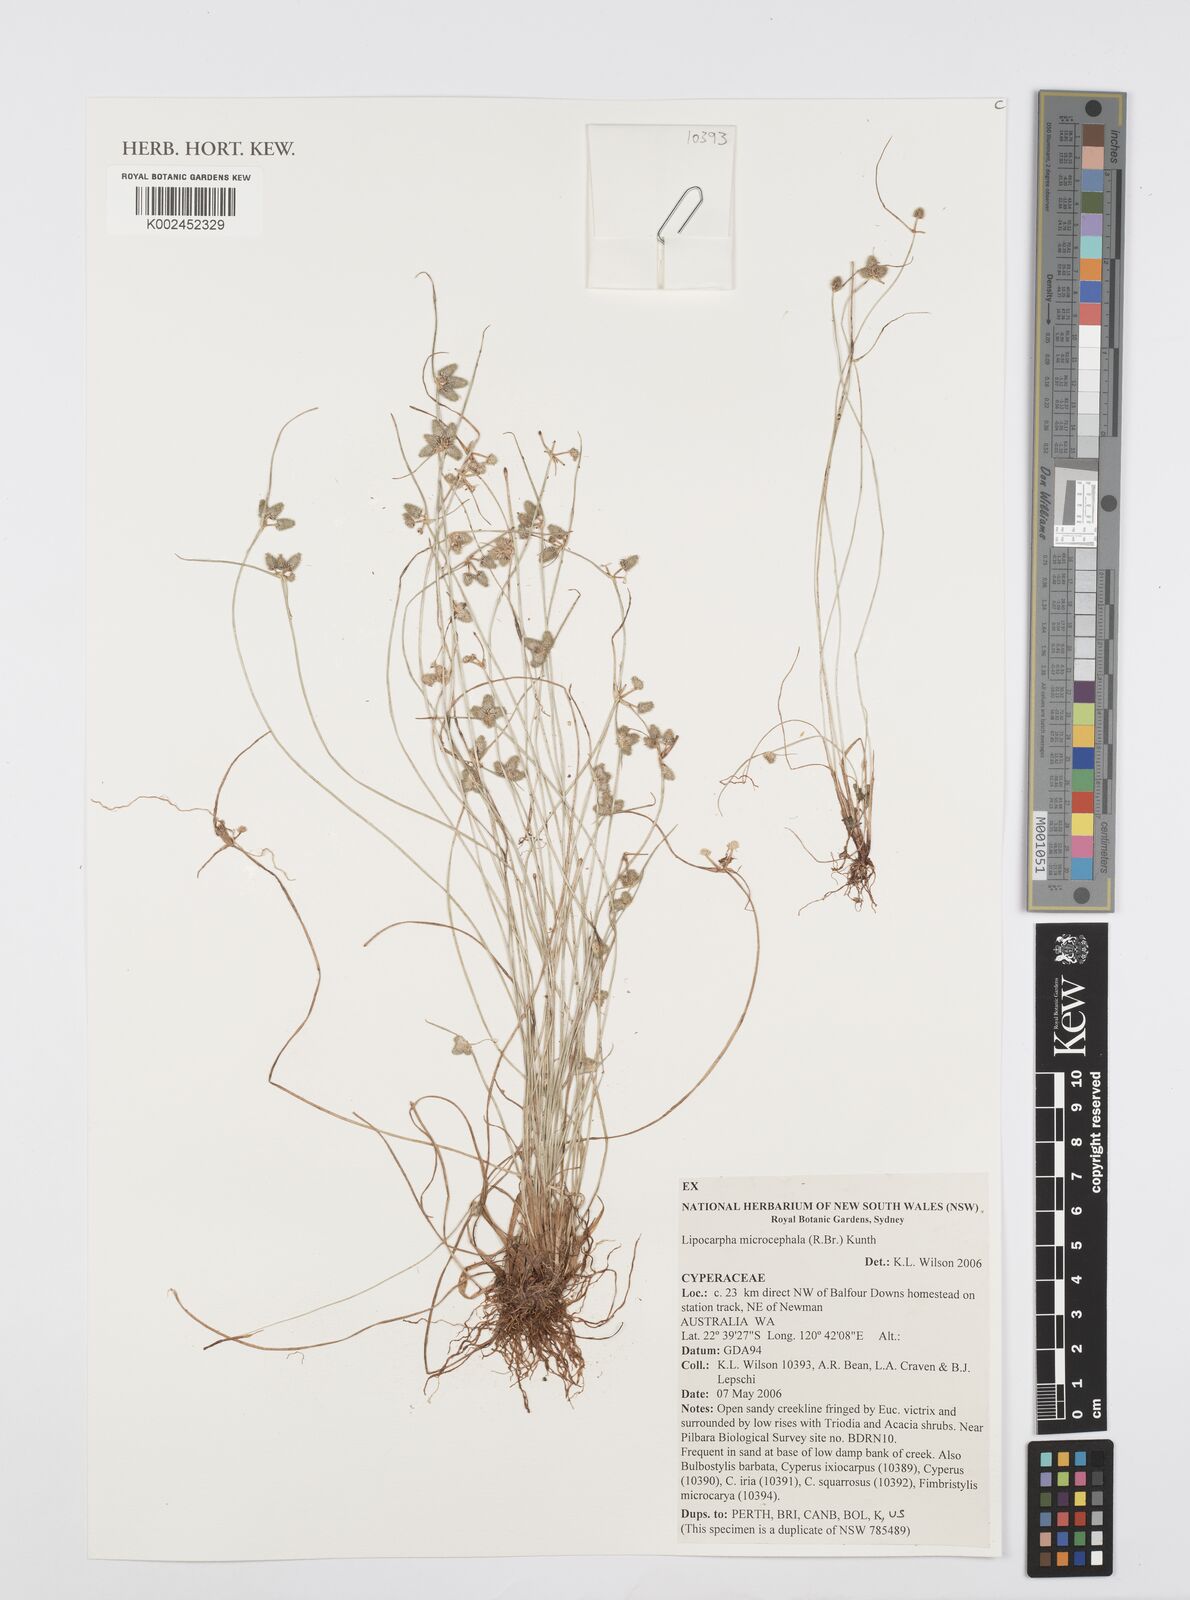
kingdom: Plantae
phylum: Tracheophyta
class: Liliopsida
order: Poales
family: Cyperaceae
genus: Cyperus
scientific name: Cyperus
